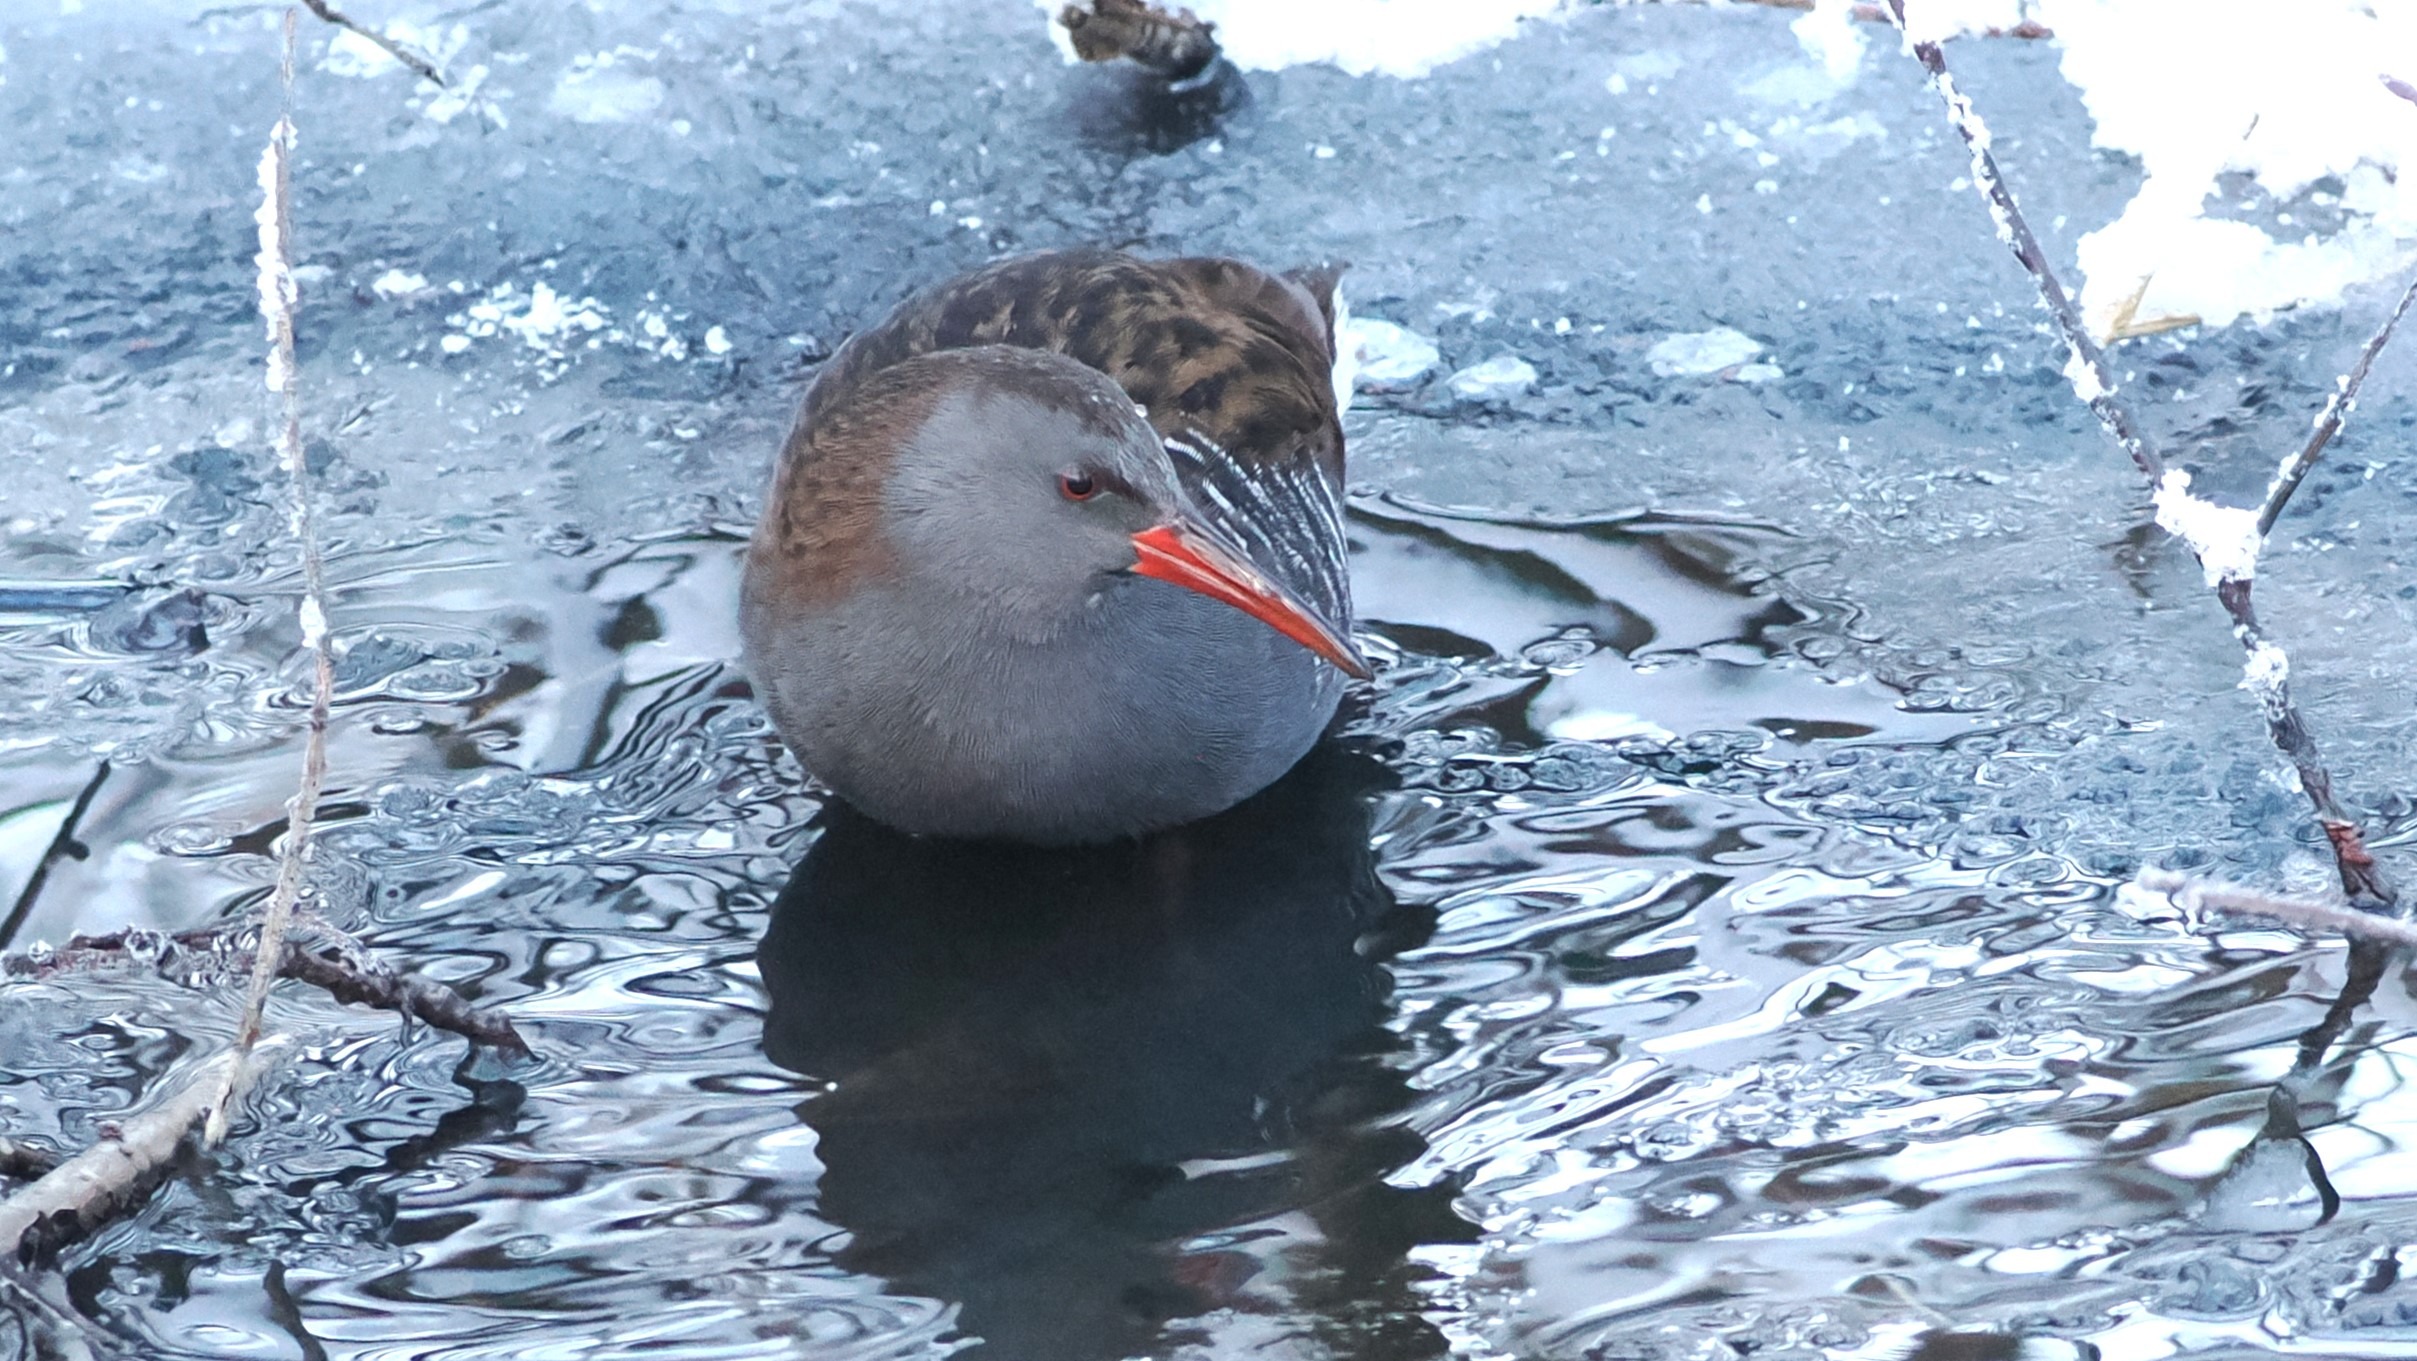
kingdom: Animalia
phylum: Chordata
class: Aves
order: Gruiformes
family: Rallidae
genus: Rallus
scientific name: Rallus aquaticus
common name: Vandrikse
